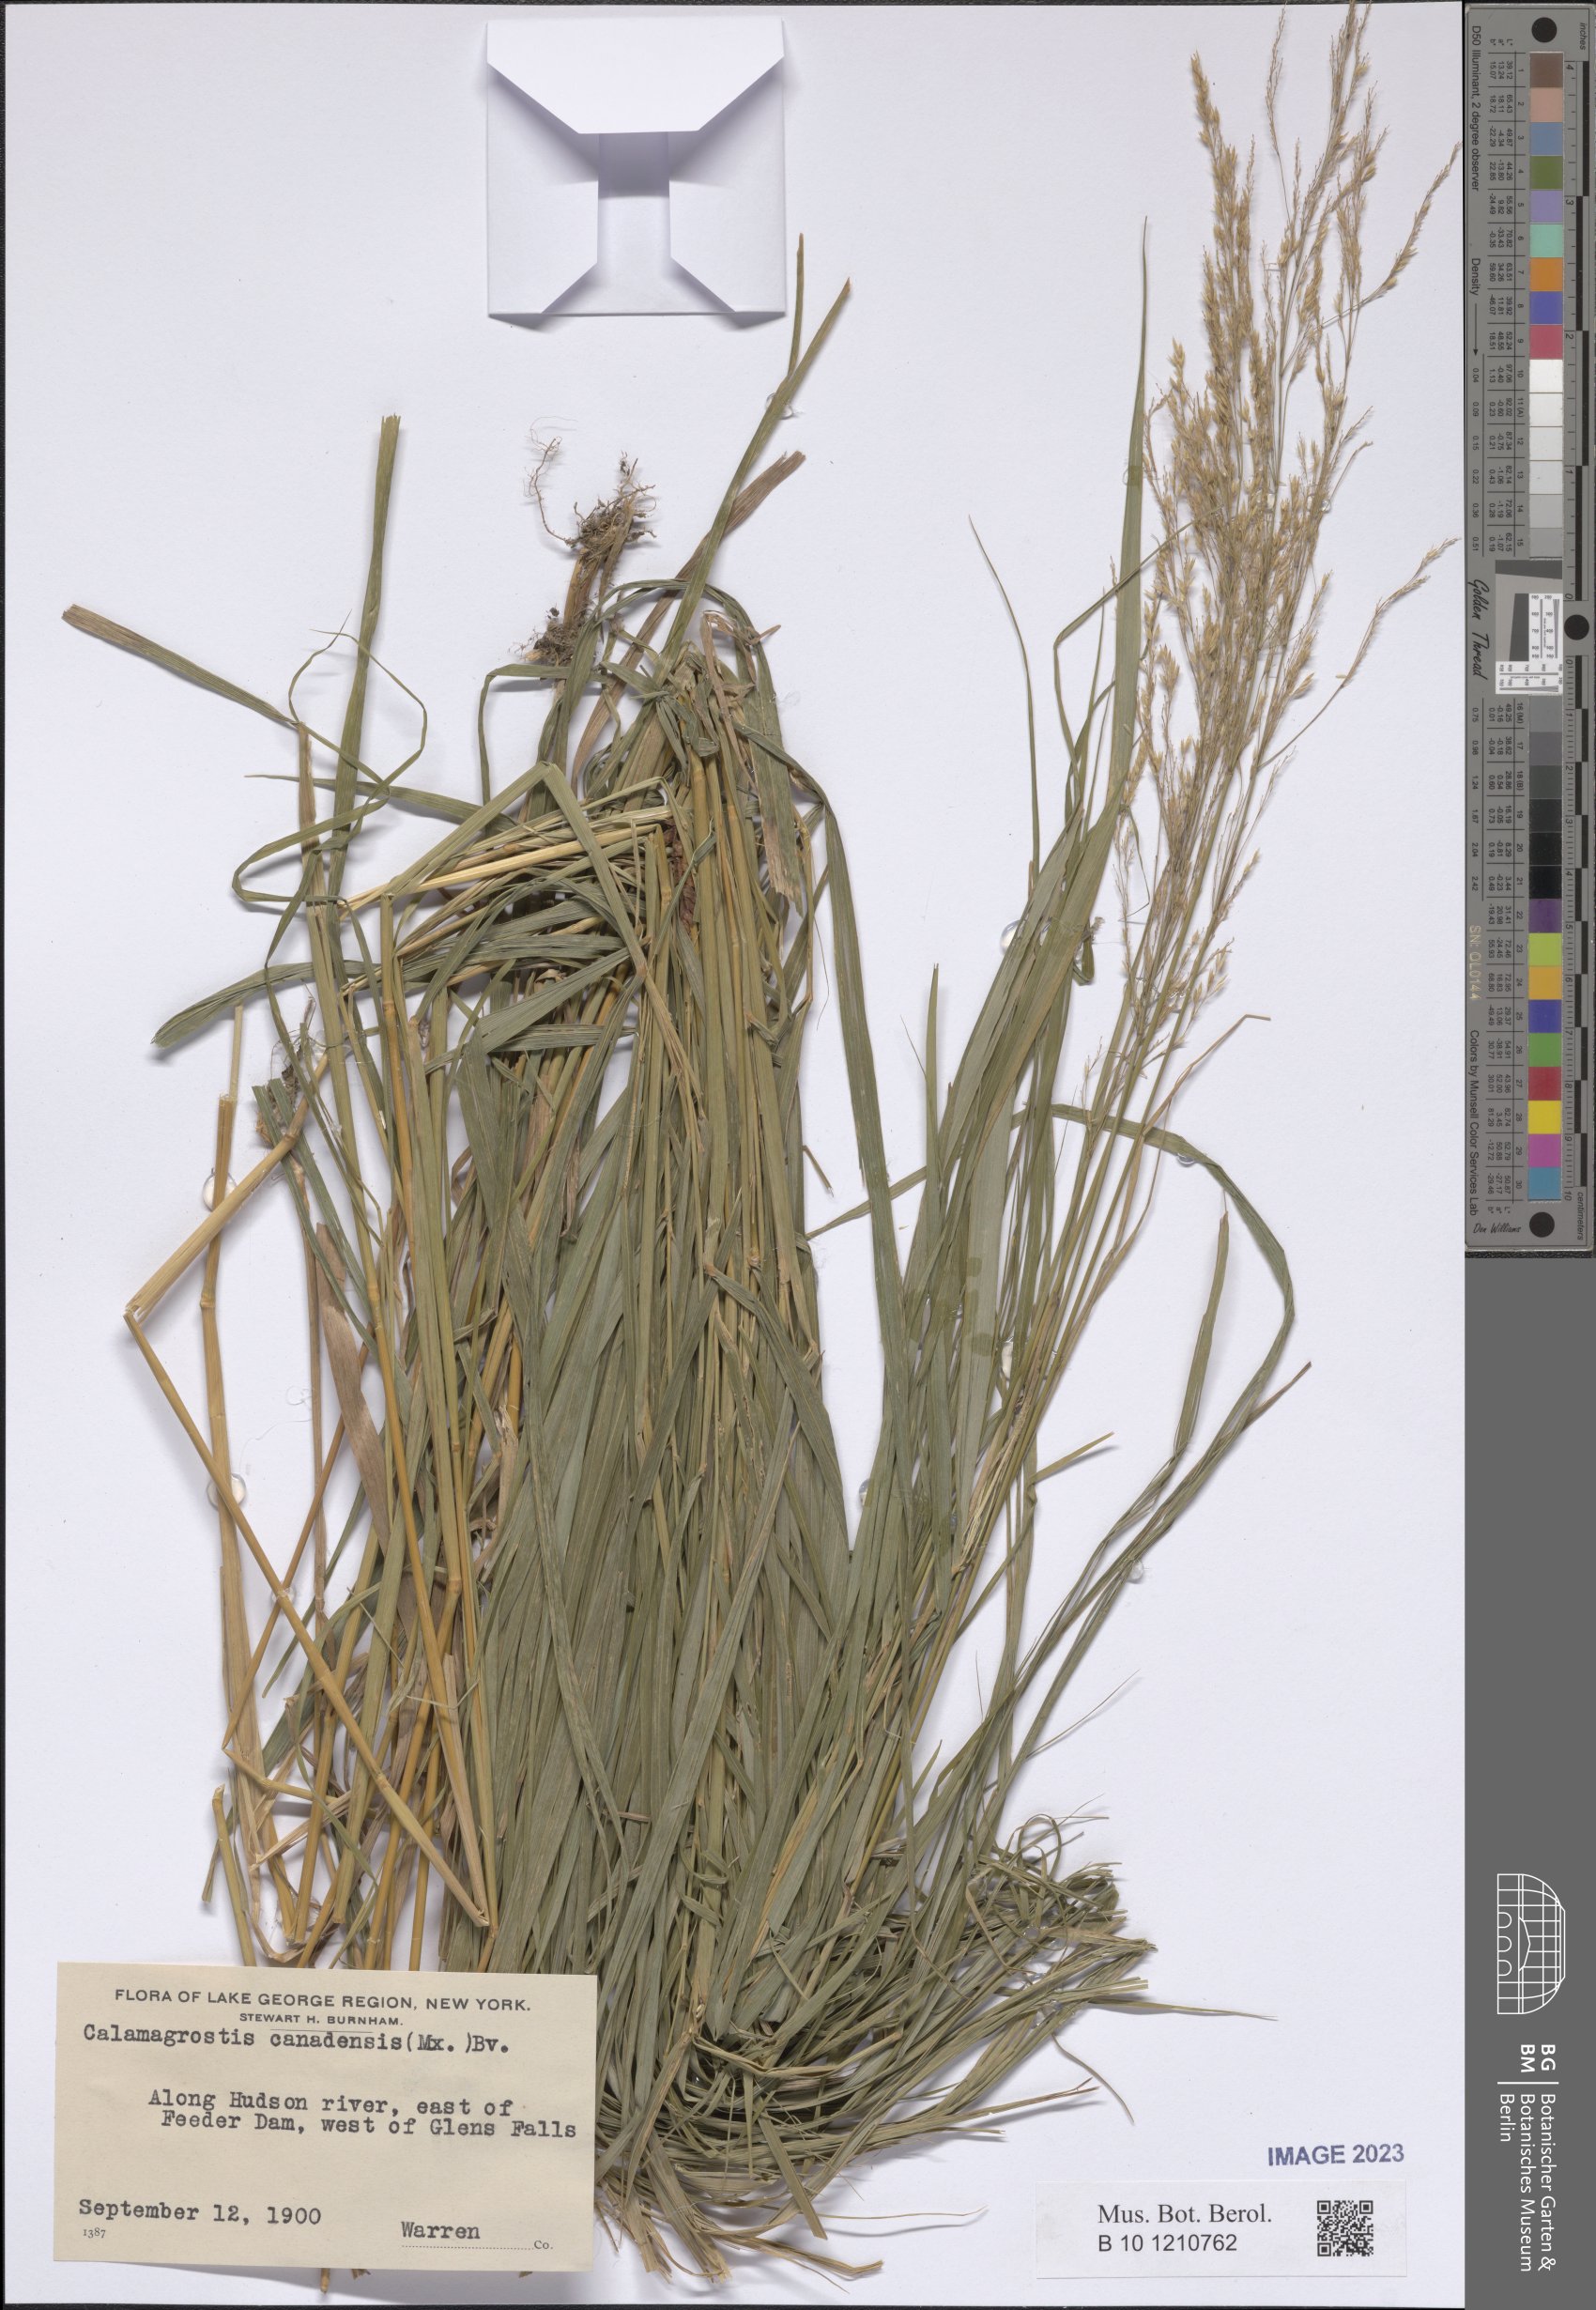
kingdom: Plantae
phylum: Tracheophyta
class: Liliopsida
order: Poales
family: Poaceae
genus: Calamagrostis
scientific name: Calamagrostis canadensis
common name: Canada bluejoint
